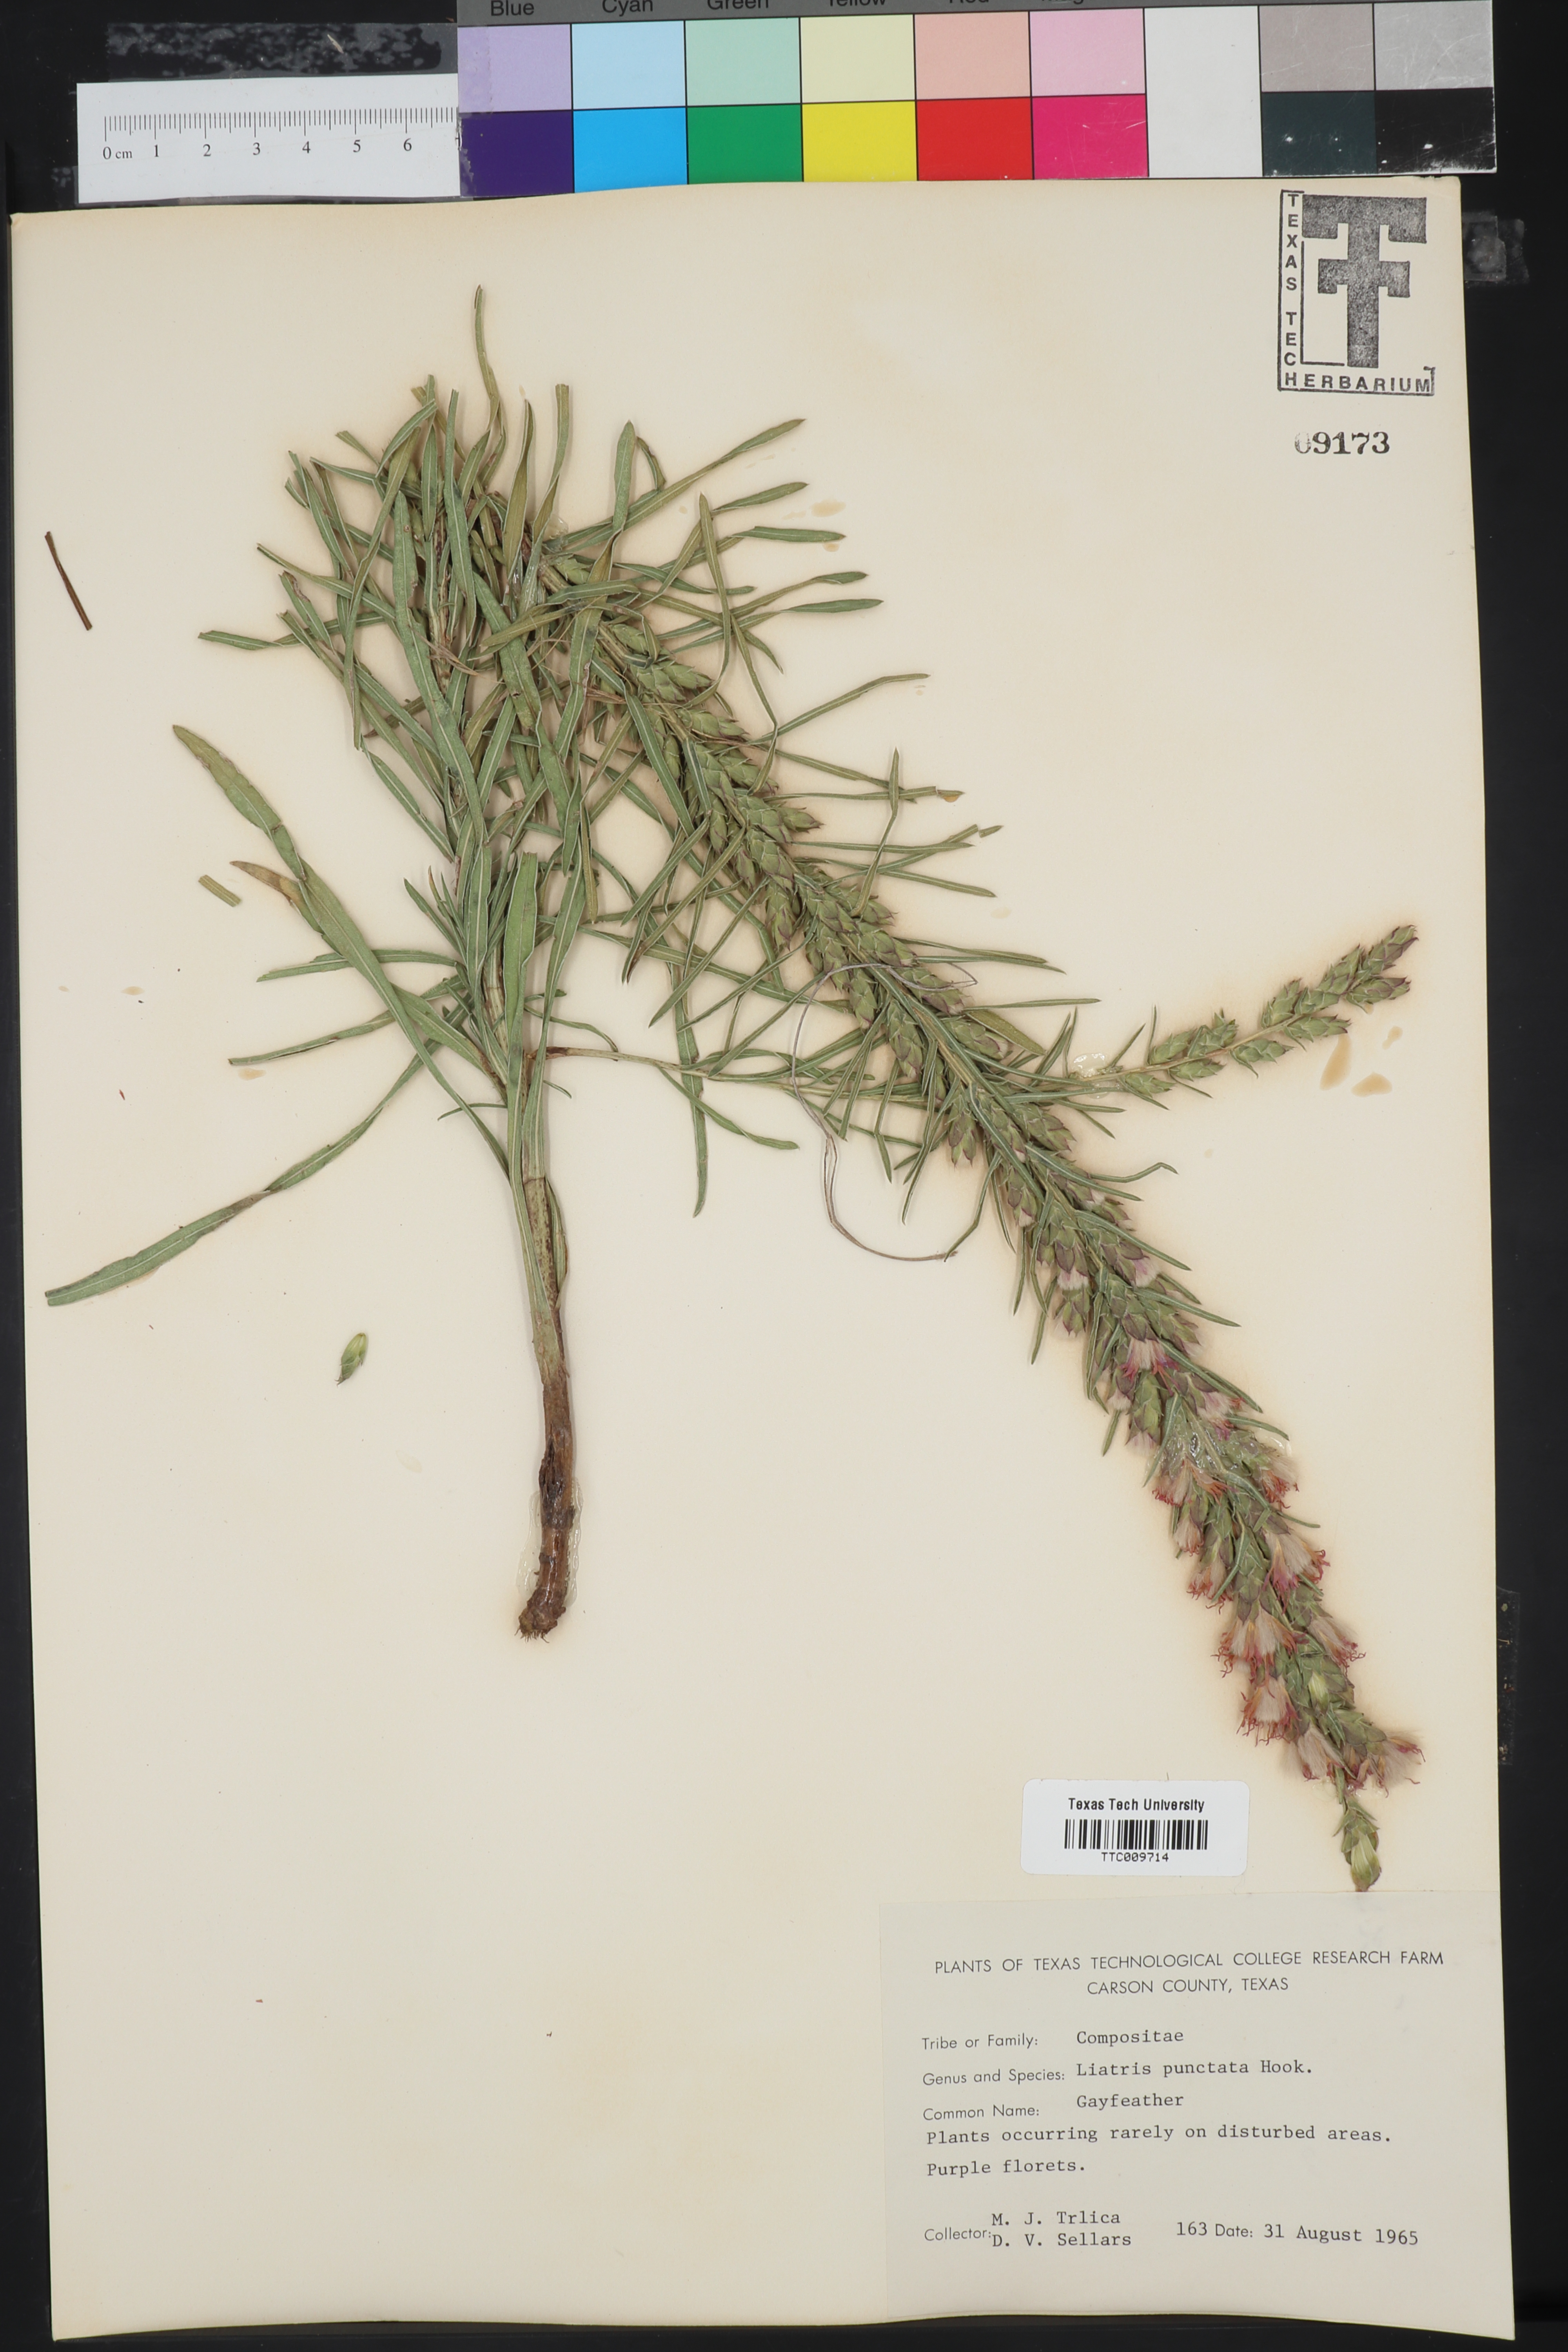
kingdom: Plantae
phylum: Tracheophyta
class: Magnoliopsida
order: Asterales
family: Asteraceae
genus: Liatris
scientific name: Liatris punctata
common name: Dotted gayfeather
